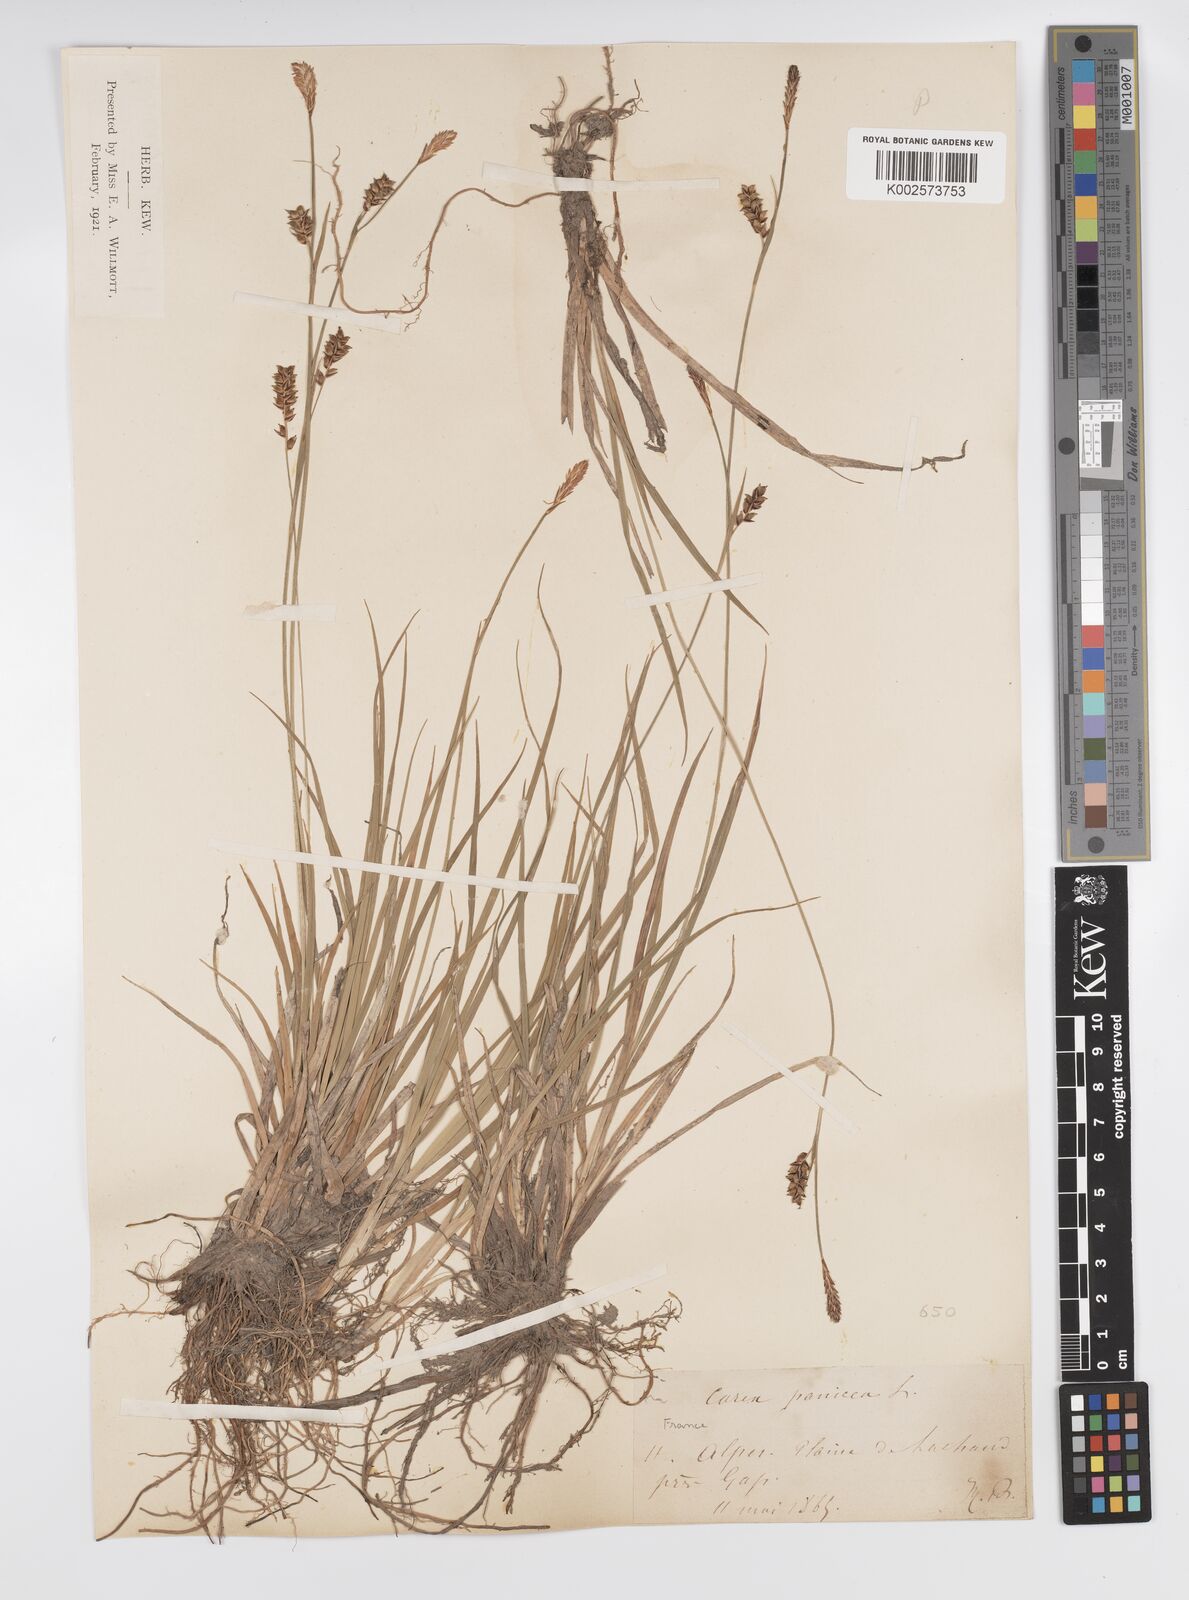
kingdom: Plantae
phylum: Tracheophyta
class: Liliopsida
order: Poales
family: Cyperaceae
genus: Carex
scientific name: Carex panicea
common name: Carnation sedge
